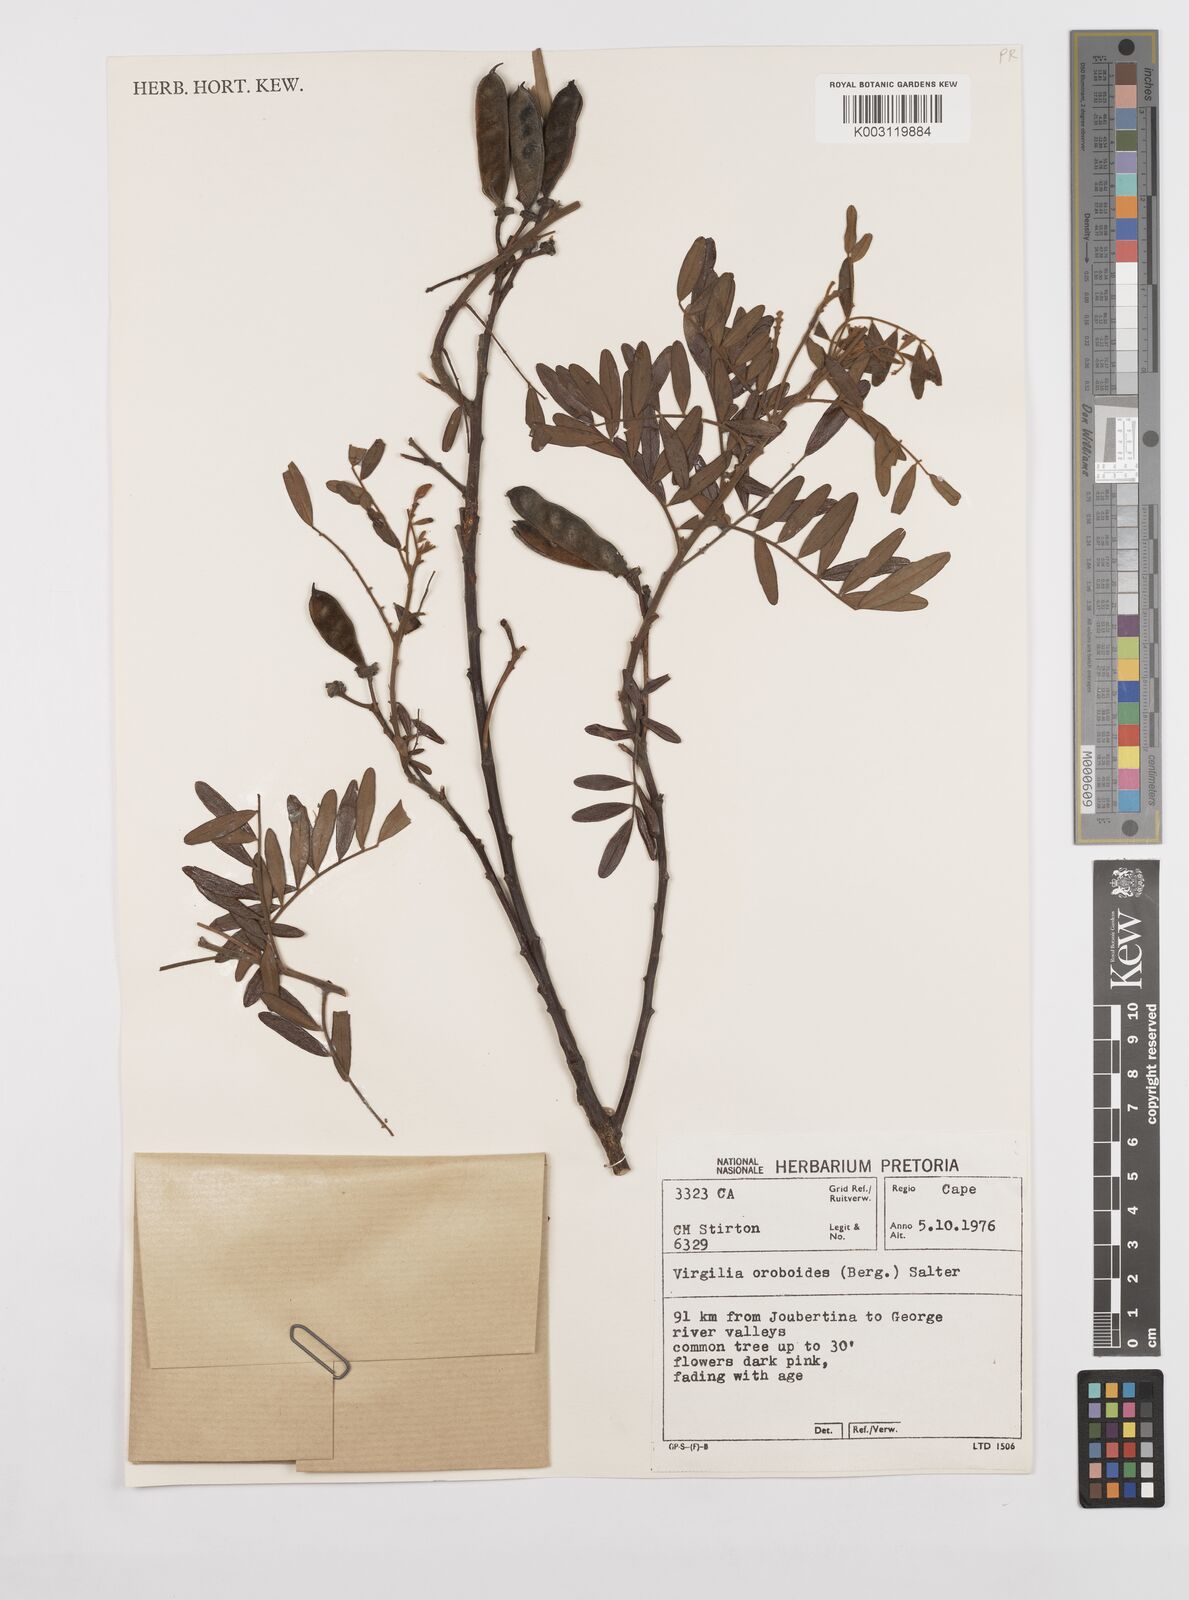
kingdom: Plantae
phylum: Tracheophyta
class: Magnoliopsida
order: Fabales
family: Fabaceae
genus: Virgilia
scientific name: Virgilia oroboides
